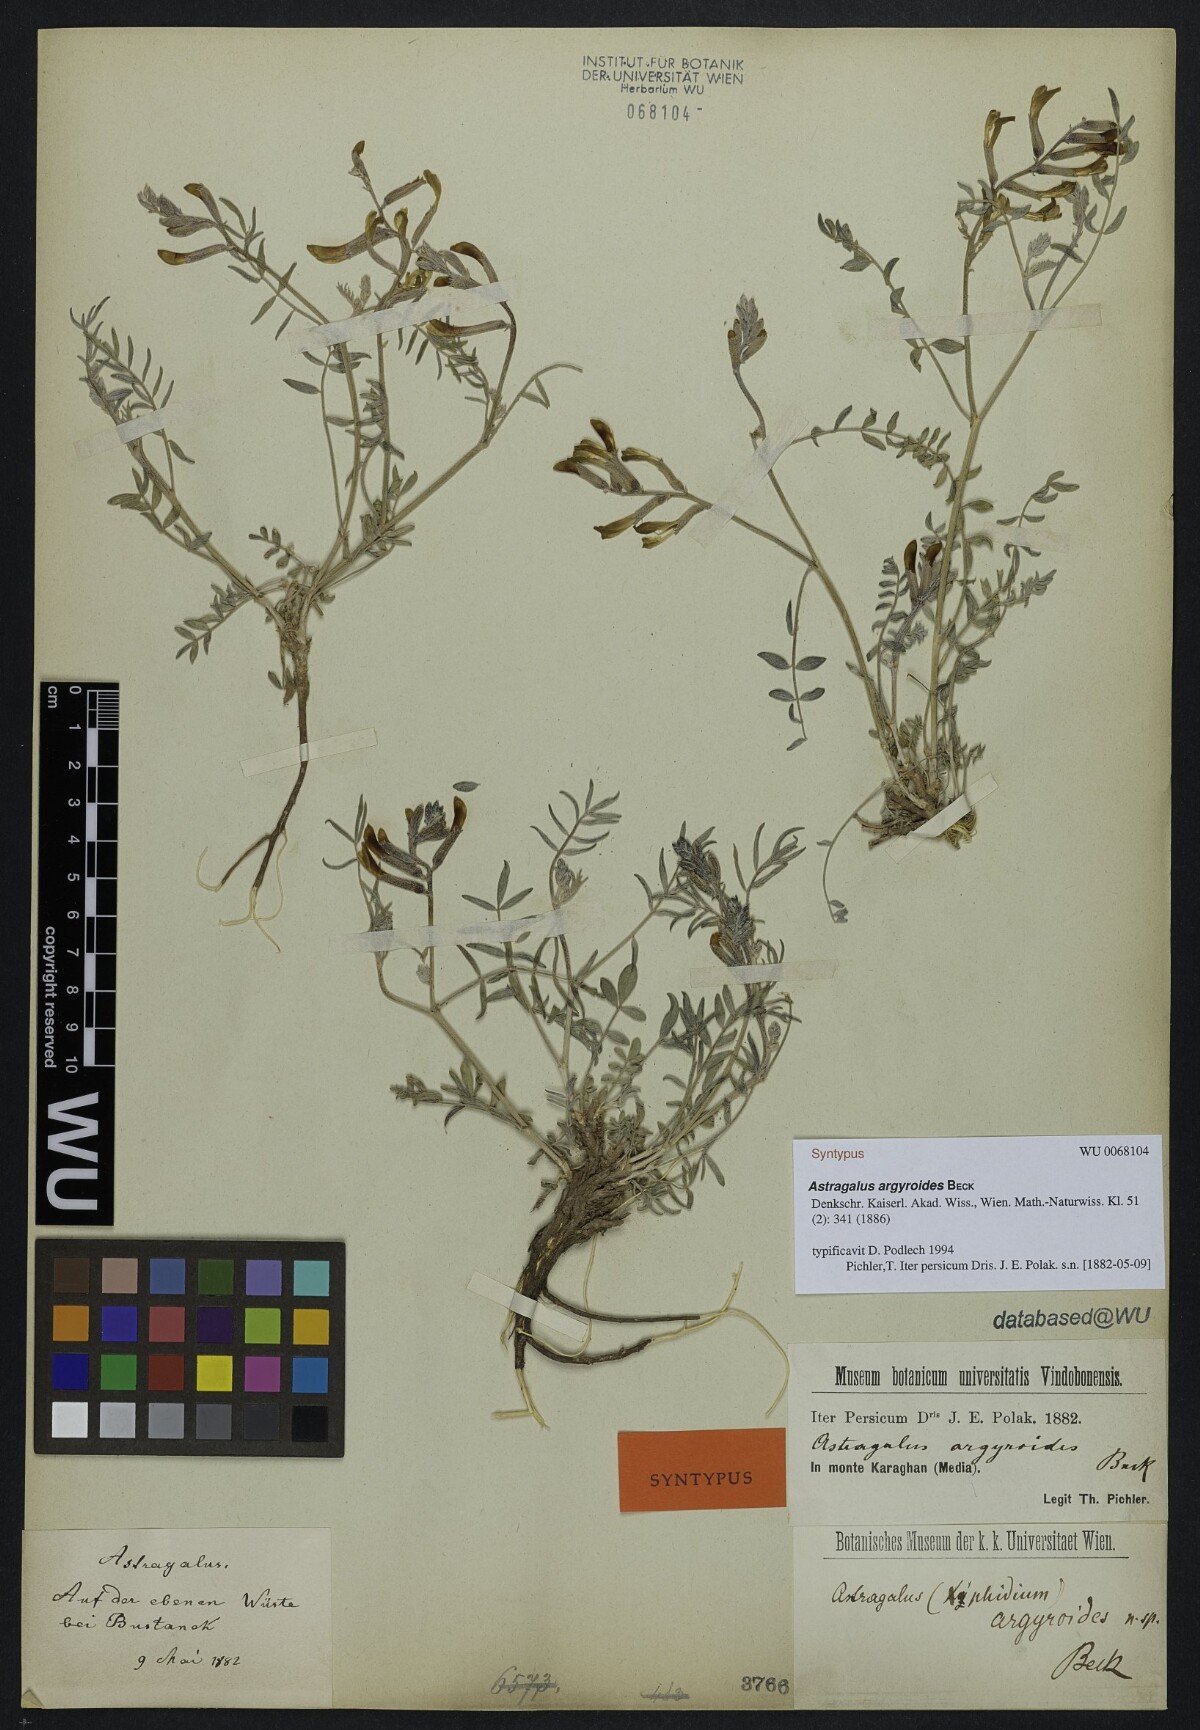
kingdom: Plantae
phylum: Tracheophyta
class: Magnoliopsida
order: Fabales
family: Fabaceae
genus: Astragalus
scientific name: Astragalus argyroides
